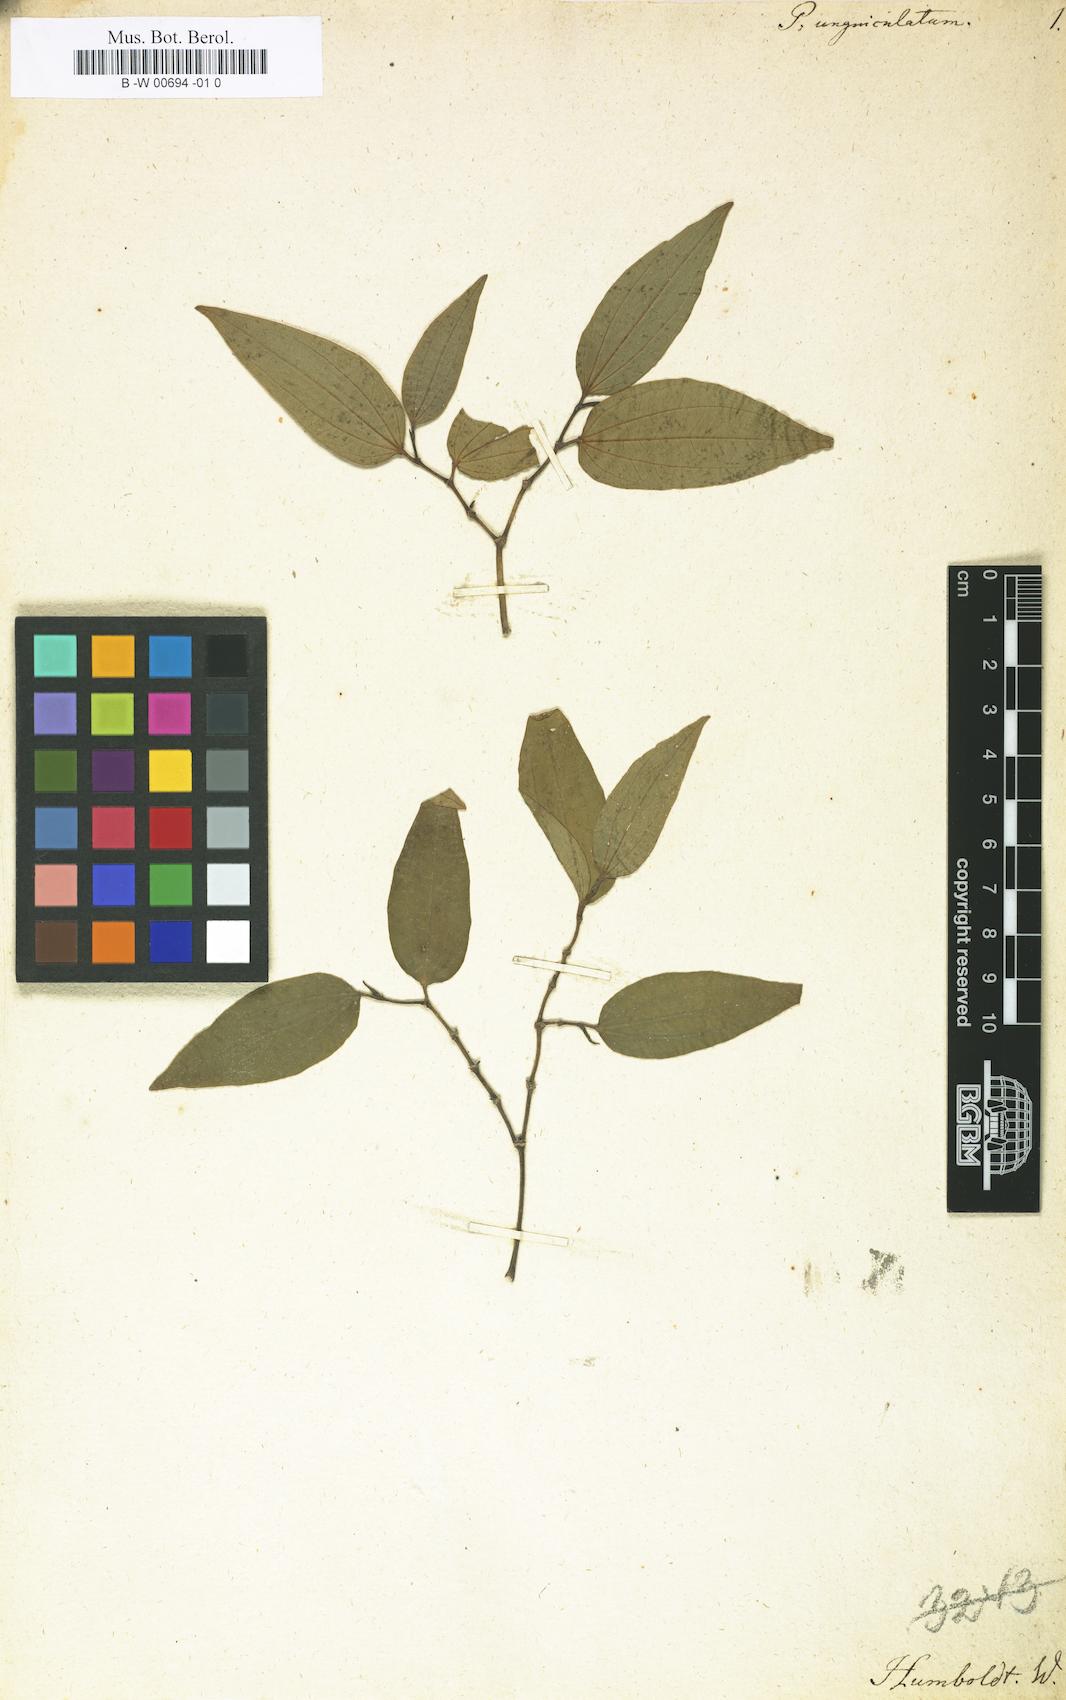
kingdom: Plantae
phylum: Tracheophyta
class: Magnoliopsida
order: Piperales
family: Piperaceae
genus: Piper
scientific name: Piper unguiculatum
